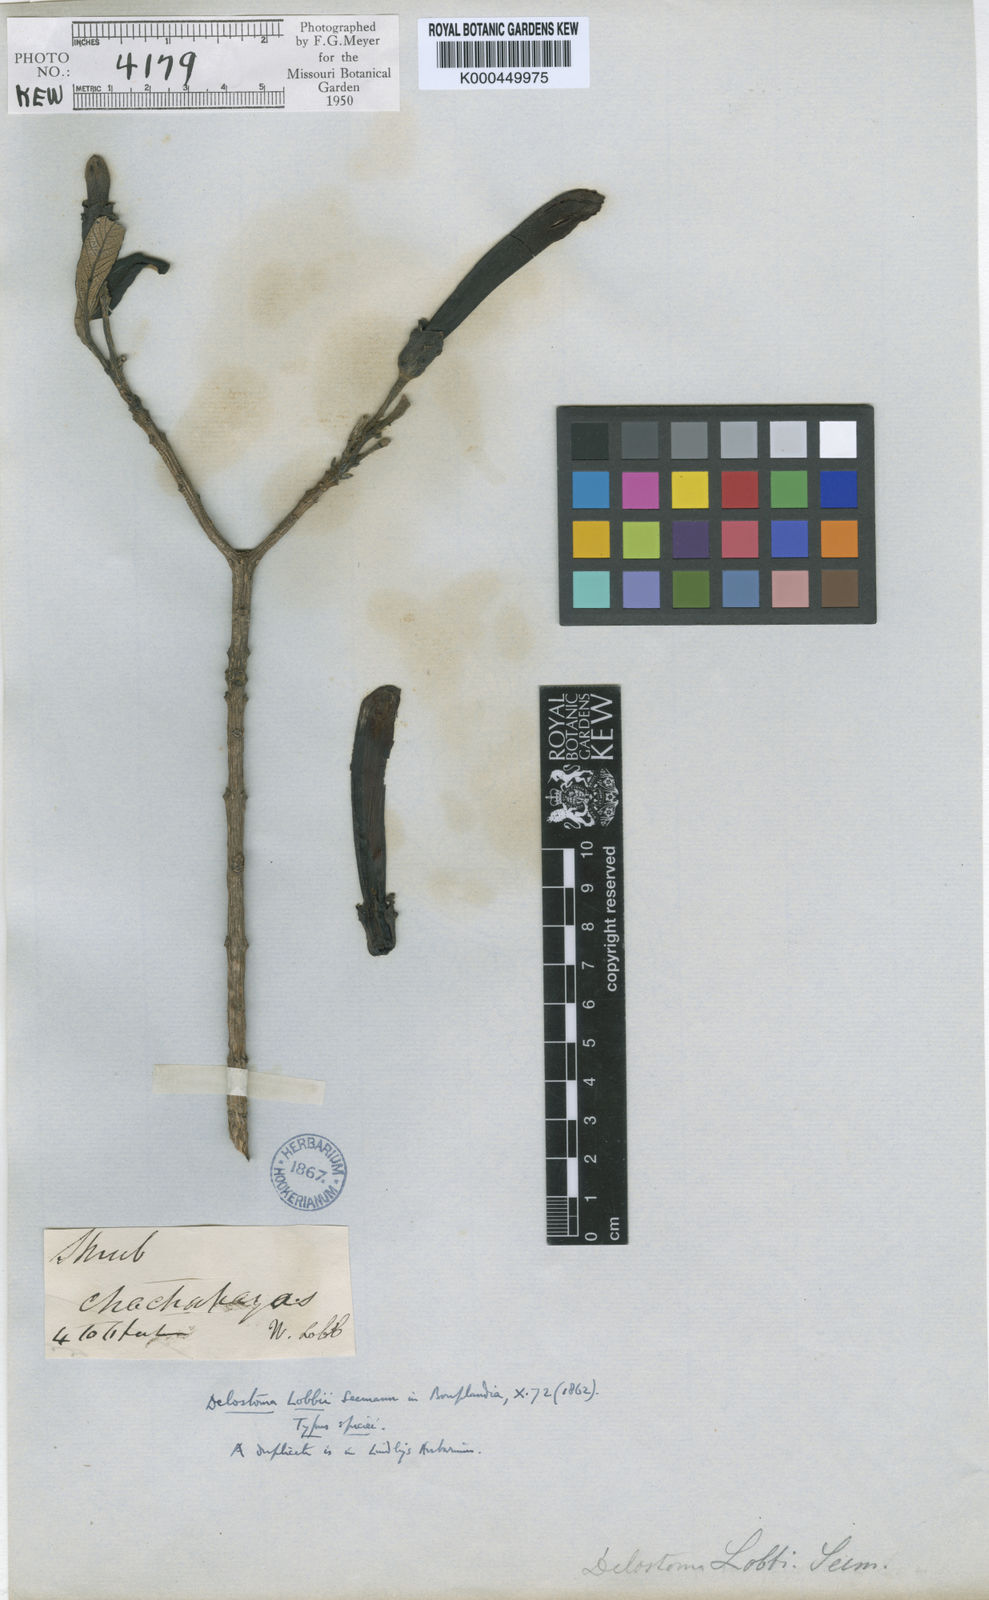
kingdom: Plantae
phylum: Tracheophyta
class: Magnoliopsida
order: Lamiales
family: Bignoniaceae
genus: Delostoma
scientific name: Delostoma lobbii
